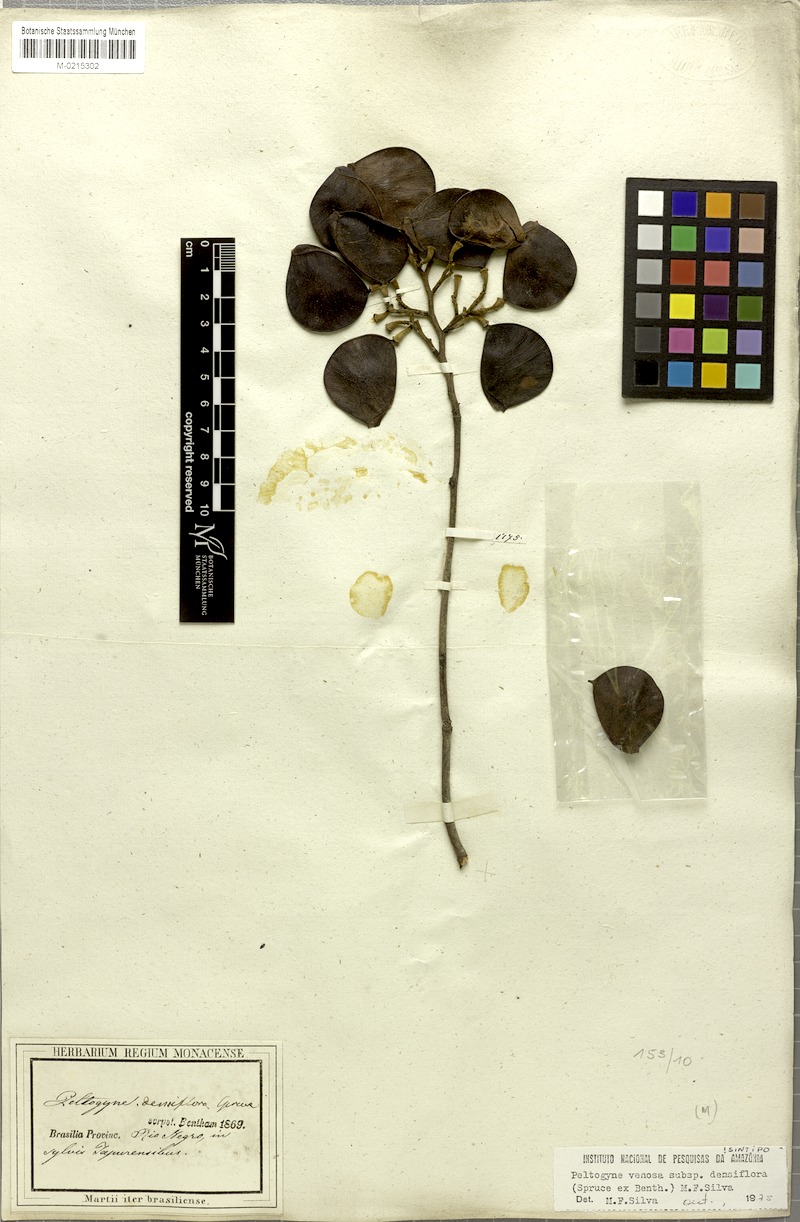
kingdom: Plantae
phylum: Tracheophyta
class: Magnoliopsida
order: Fabales
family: Fabaceae
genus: Peltogyne
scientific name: Peltogyne venosa
